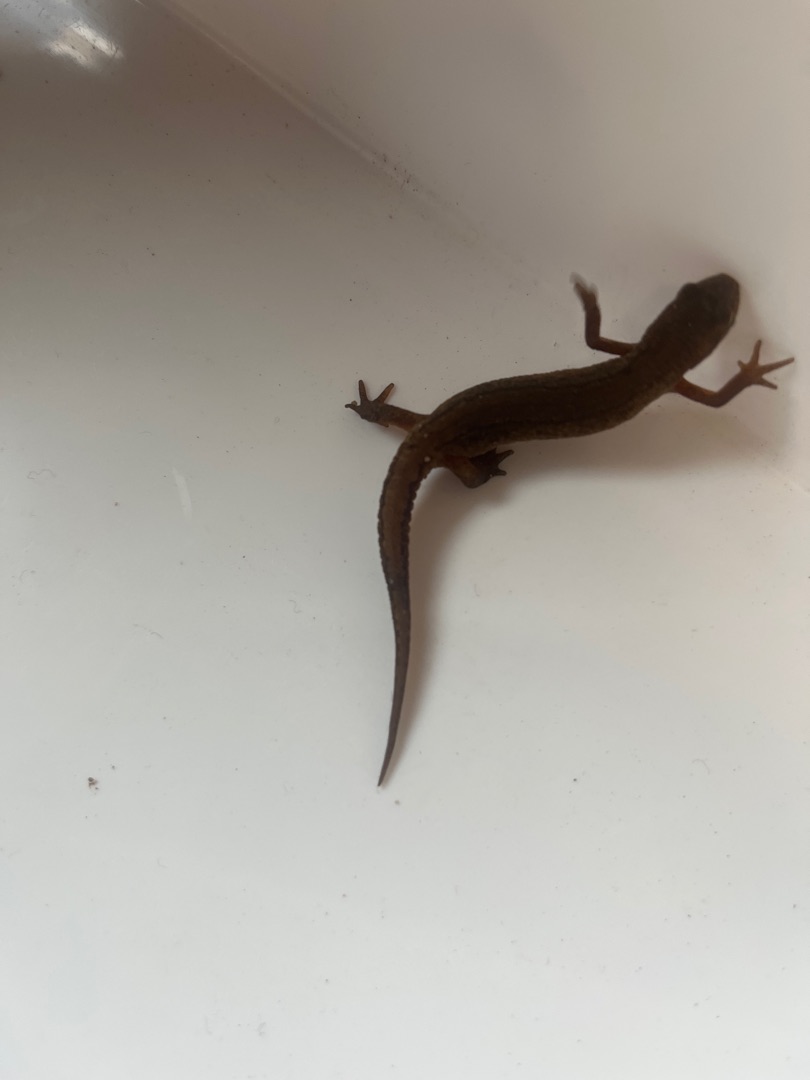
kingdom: Animalia
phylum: Chordata
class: Amphibia
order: Caudata
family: Salamandridae
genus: Lissotriton
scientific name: Lissotriton vulgaris
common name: Lille vandsalamander
